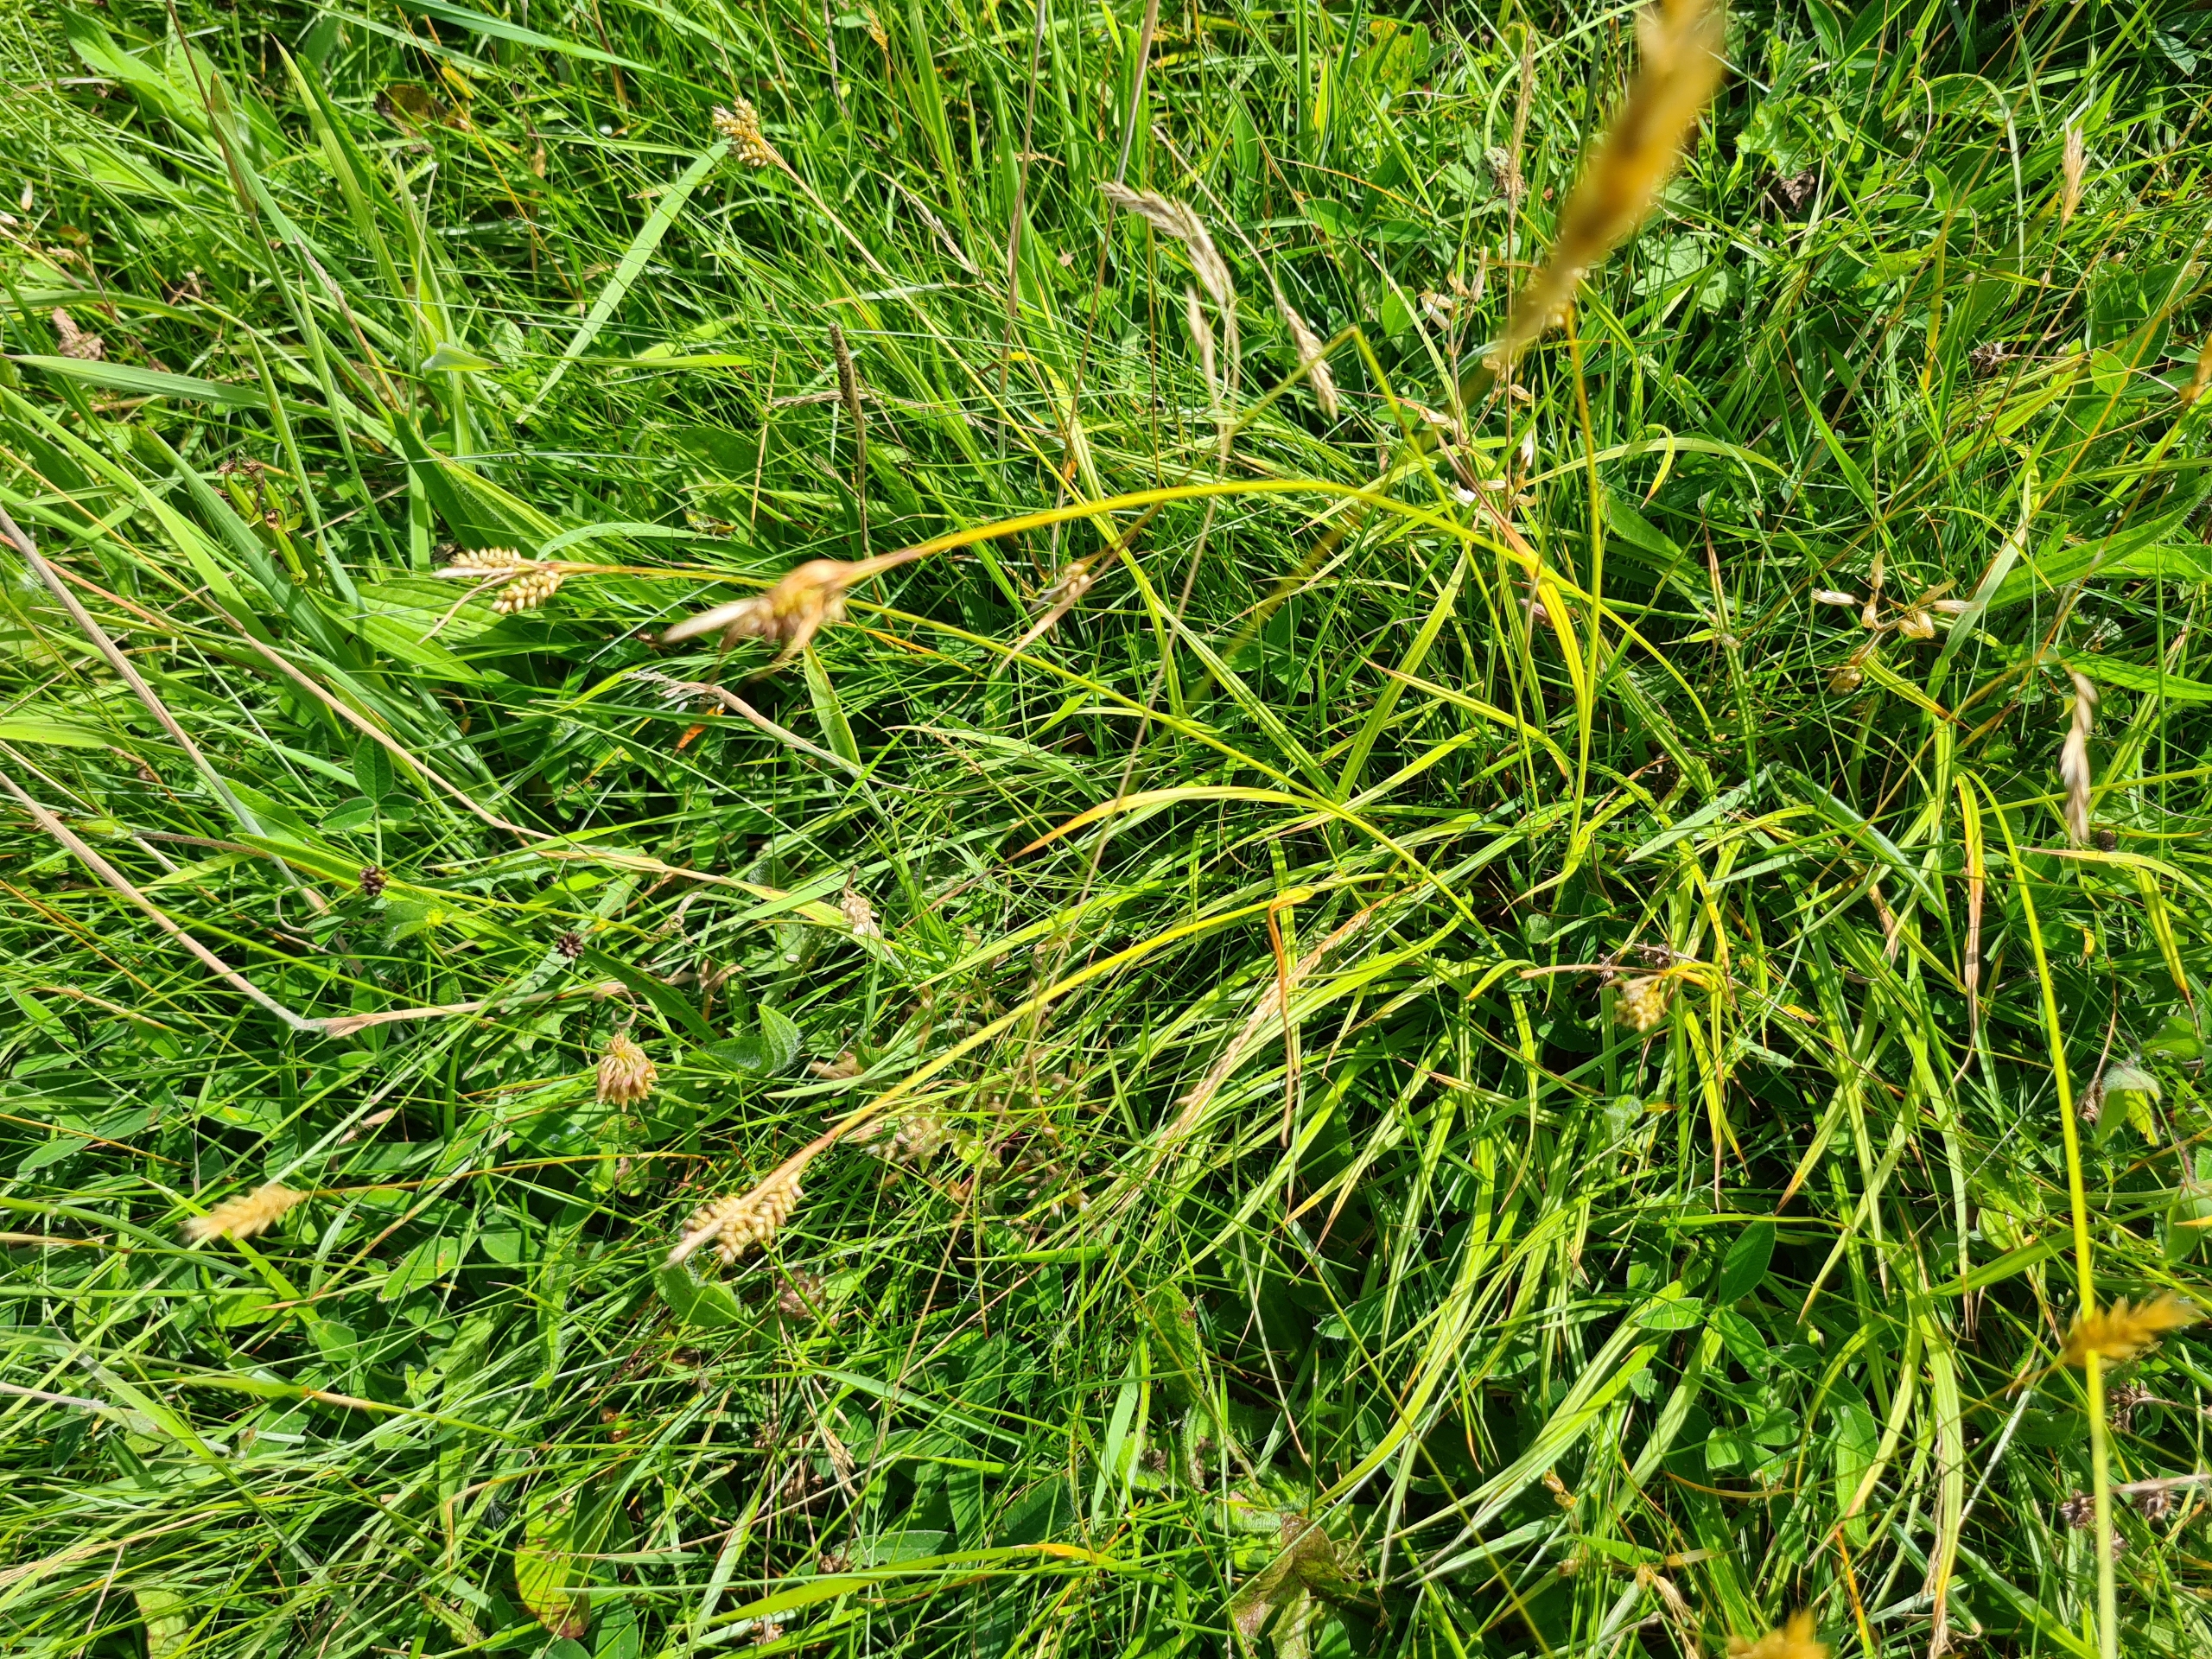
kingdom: Plantae
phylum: Tracheophyta
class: Liliopsida
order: Poales
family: Cyperaceae
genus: Carex
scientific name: Carex pallescens
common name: Bleg star
